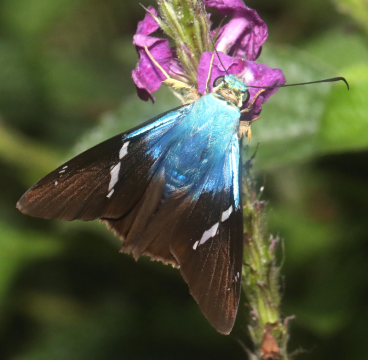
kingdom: Animalia
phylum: Arthropoda
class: Insecta
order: Lepidoptera
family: Hesperiidae
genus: Astraptes
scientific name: Astraptes fulgerator
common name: Two-barred Flasher
